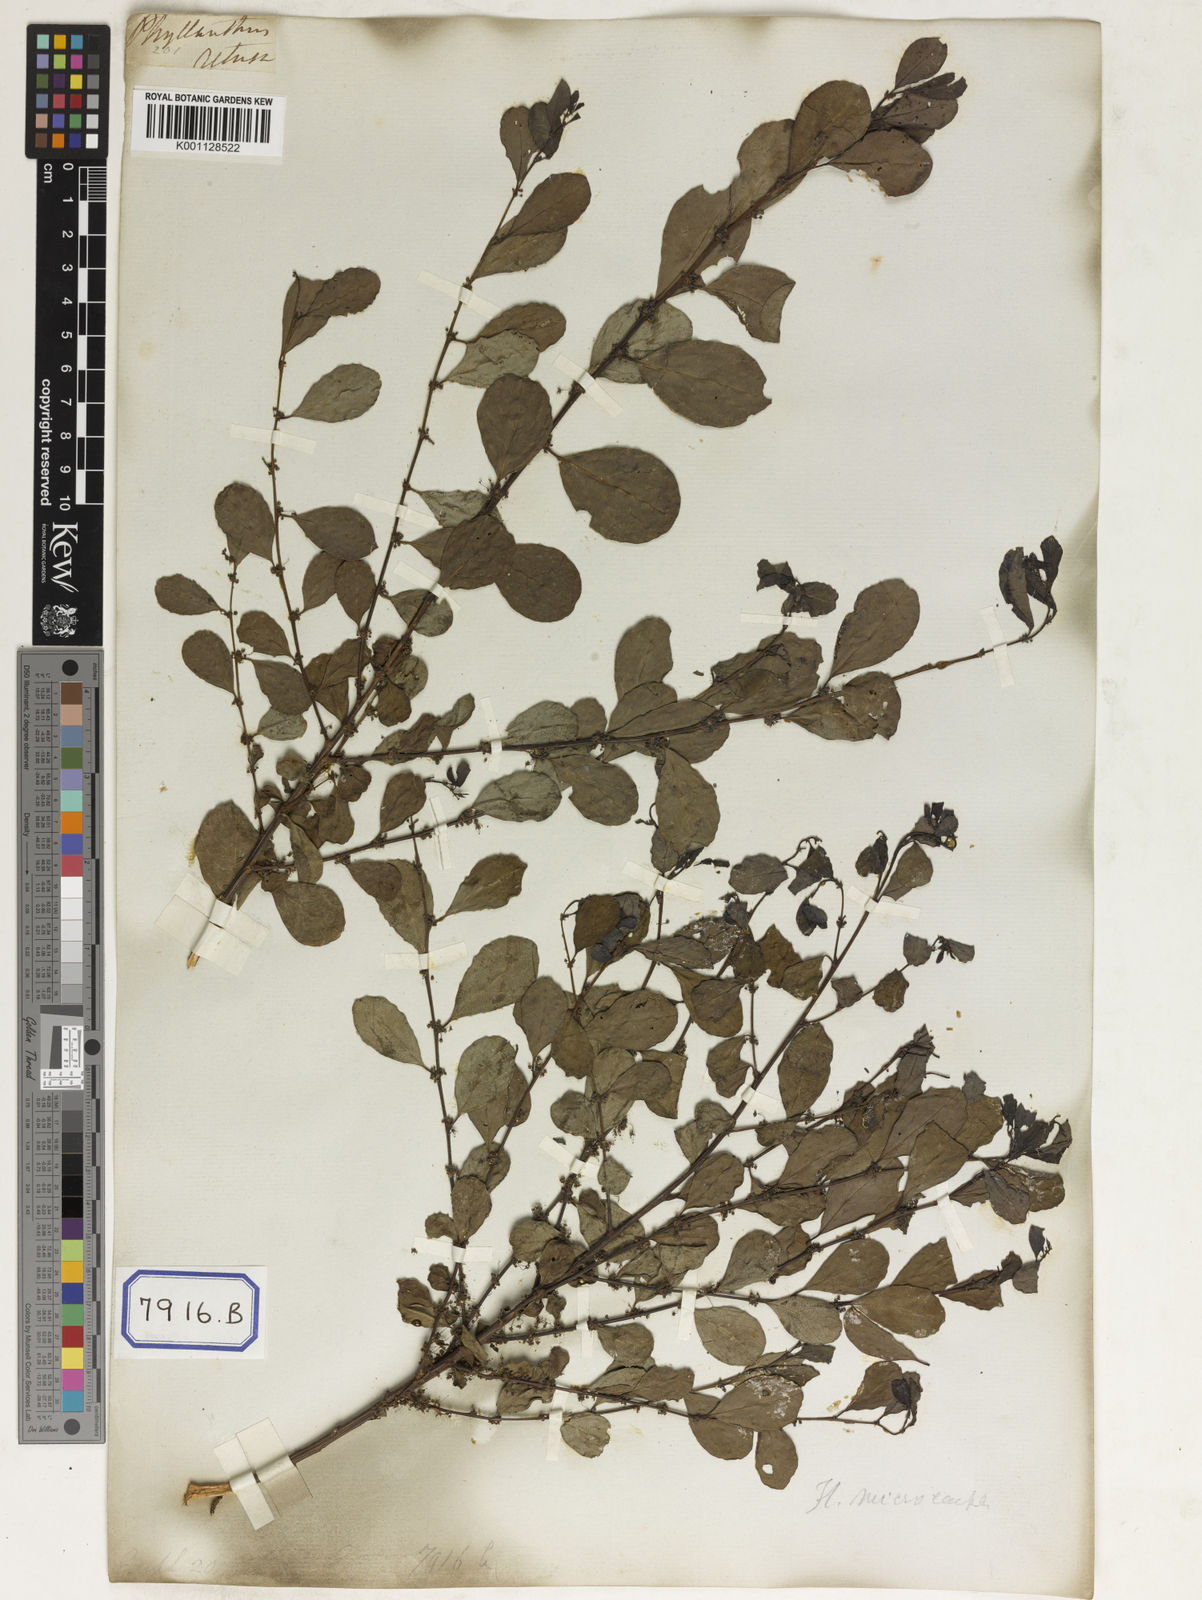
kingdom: Plantae
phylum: Tracheophyta
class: Magnoliopsida
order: Malpighiales
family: Euphorbiaceae
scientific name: Euphorbiaceae
